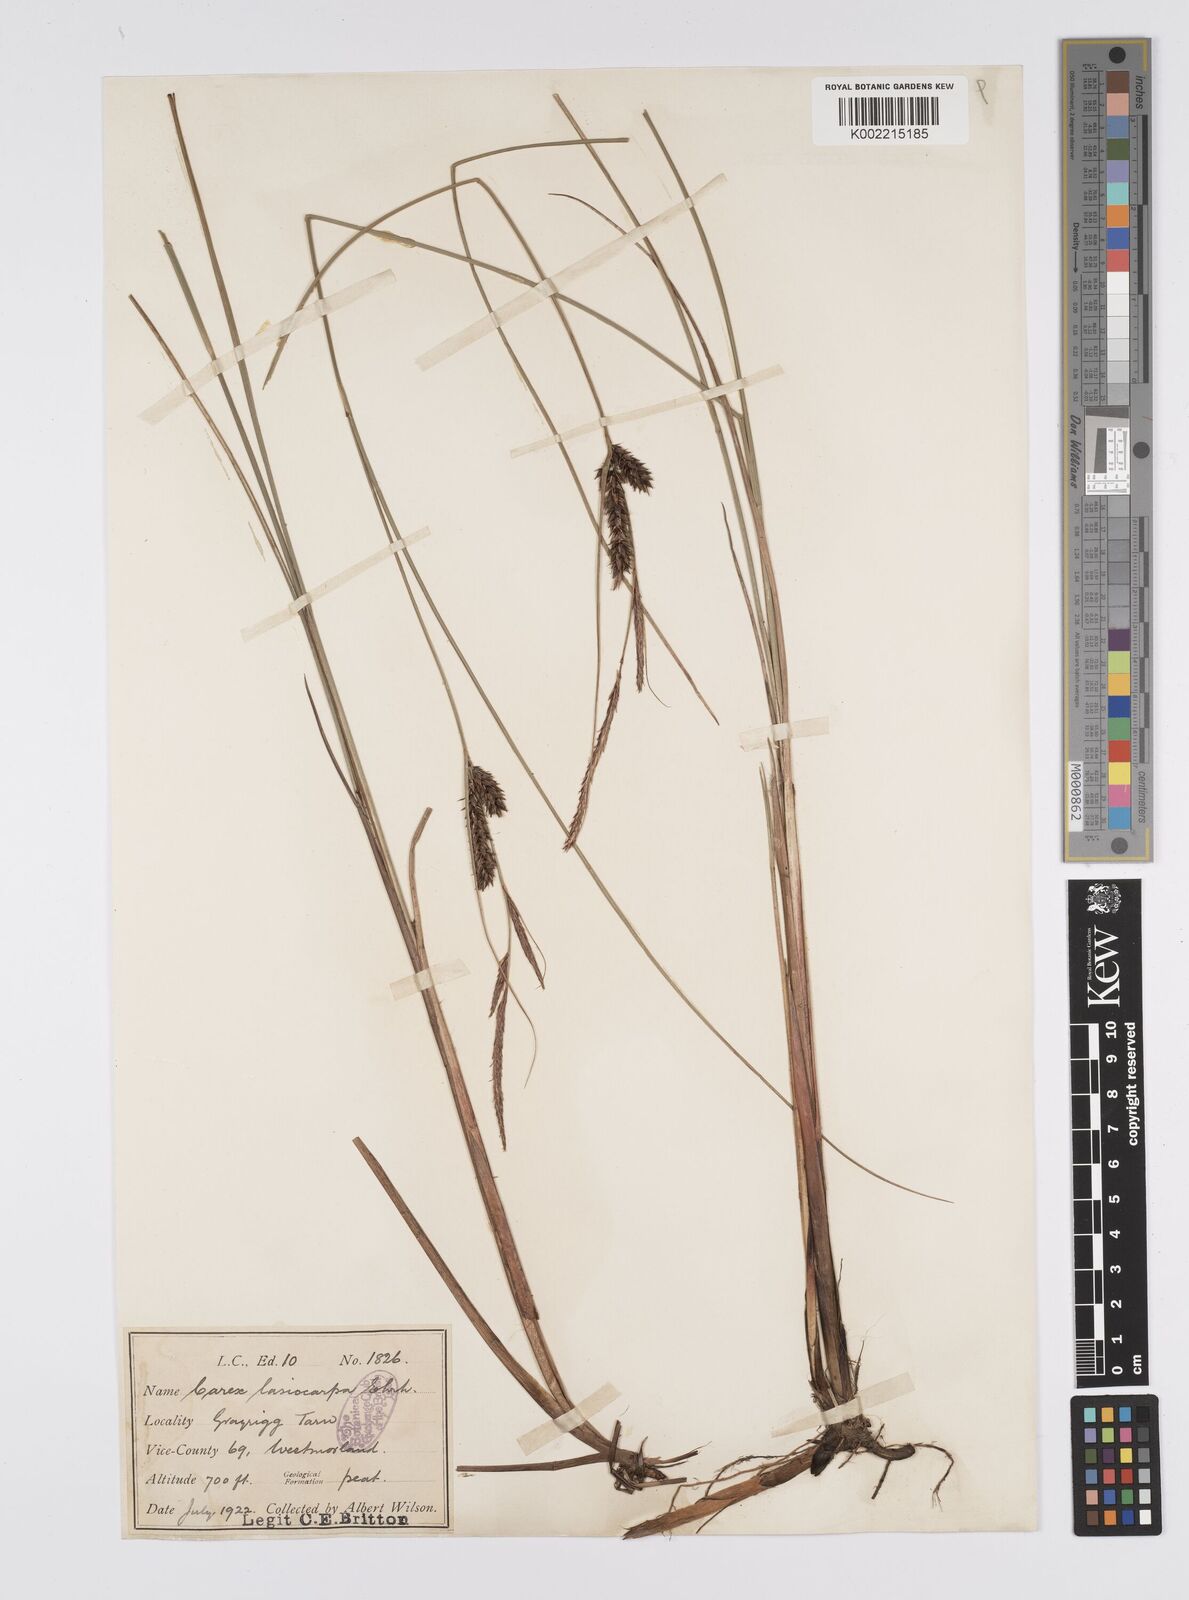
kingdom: Plantae
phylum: Tracheophyta
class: Liliopsida
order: Poales
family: Cyperaceae
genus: Carex
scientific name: Carex lasiocarpa
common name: Slender sedge
